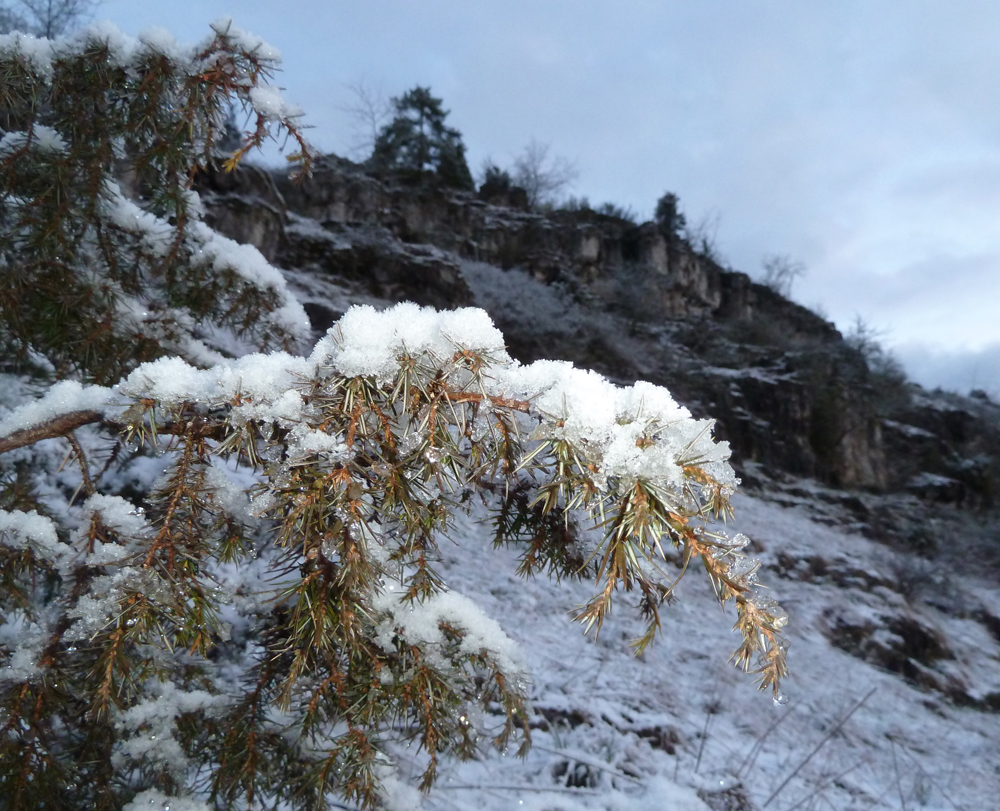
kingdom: Plantae
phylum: Tracheophyta
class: Pinopsida
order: Pinales
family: Cupressaceae
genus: Juniperus
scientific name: Juniperus communis
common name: Common juniper
